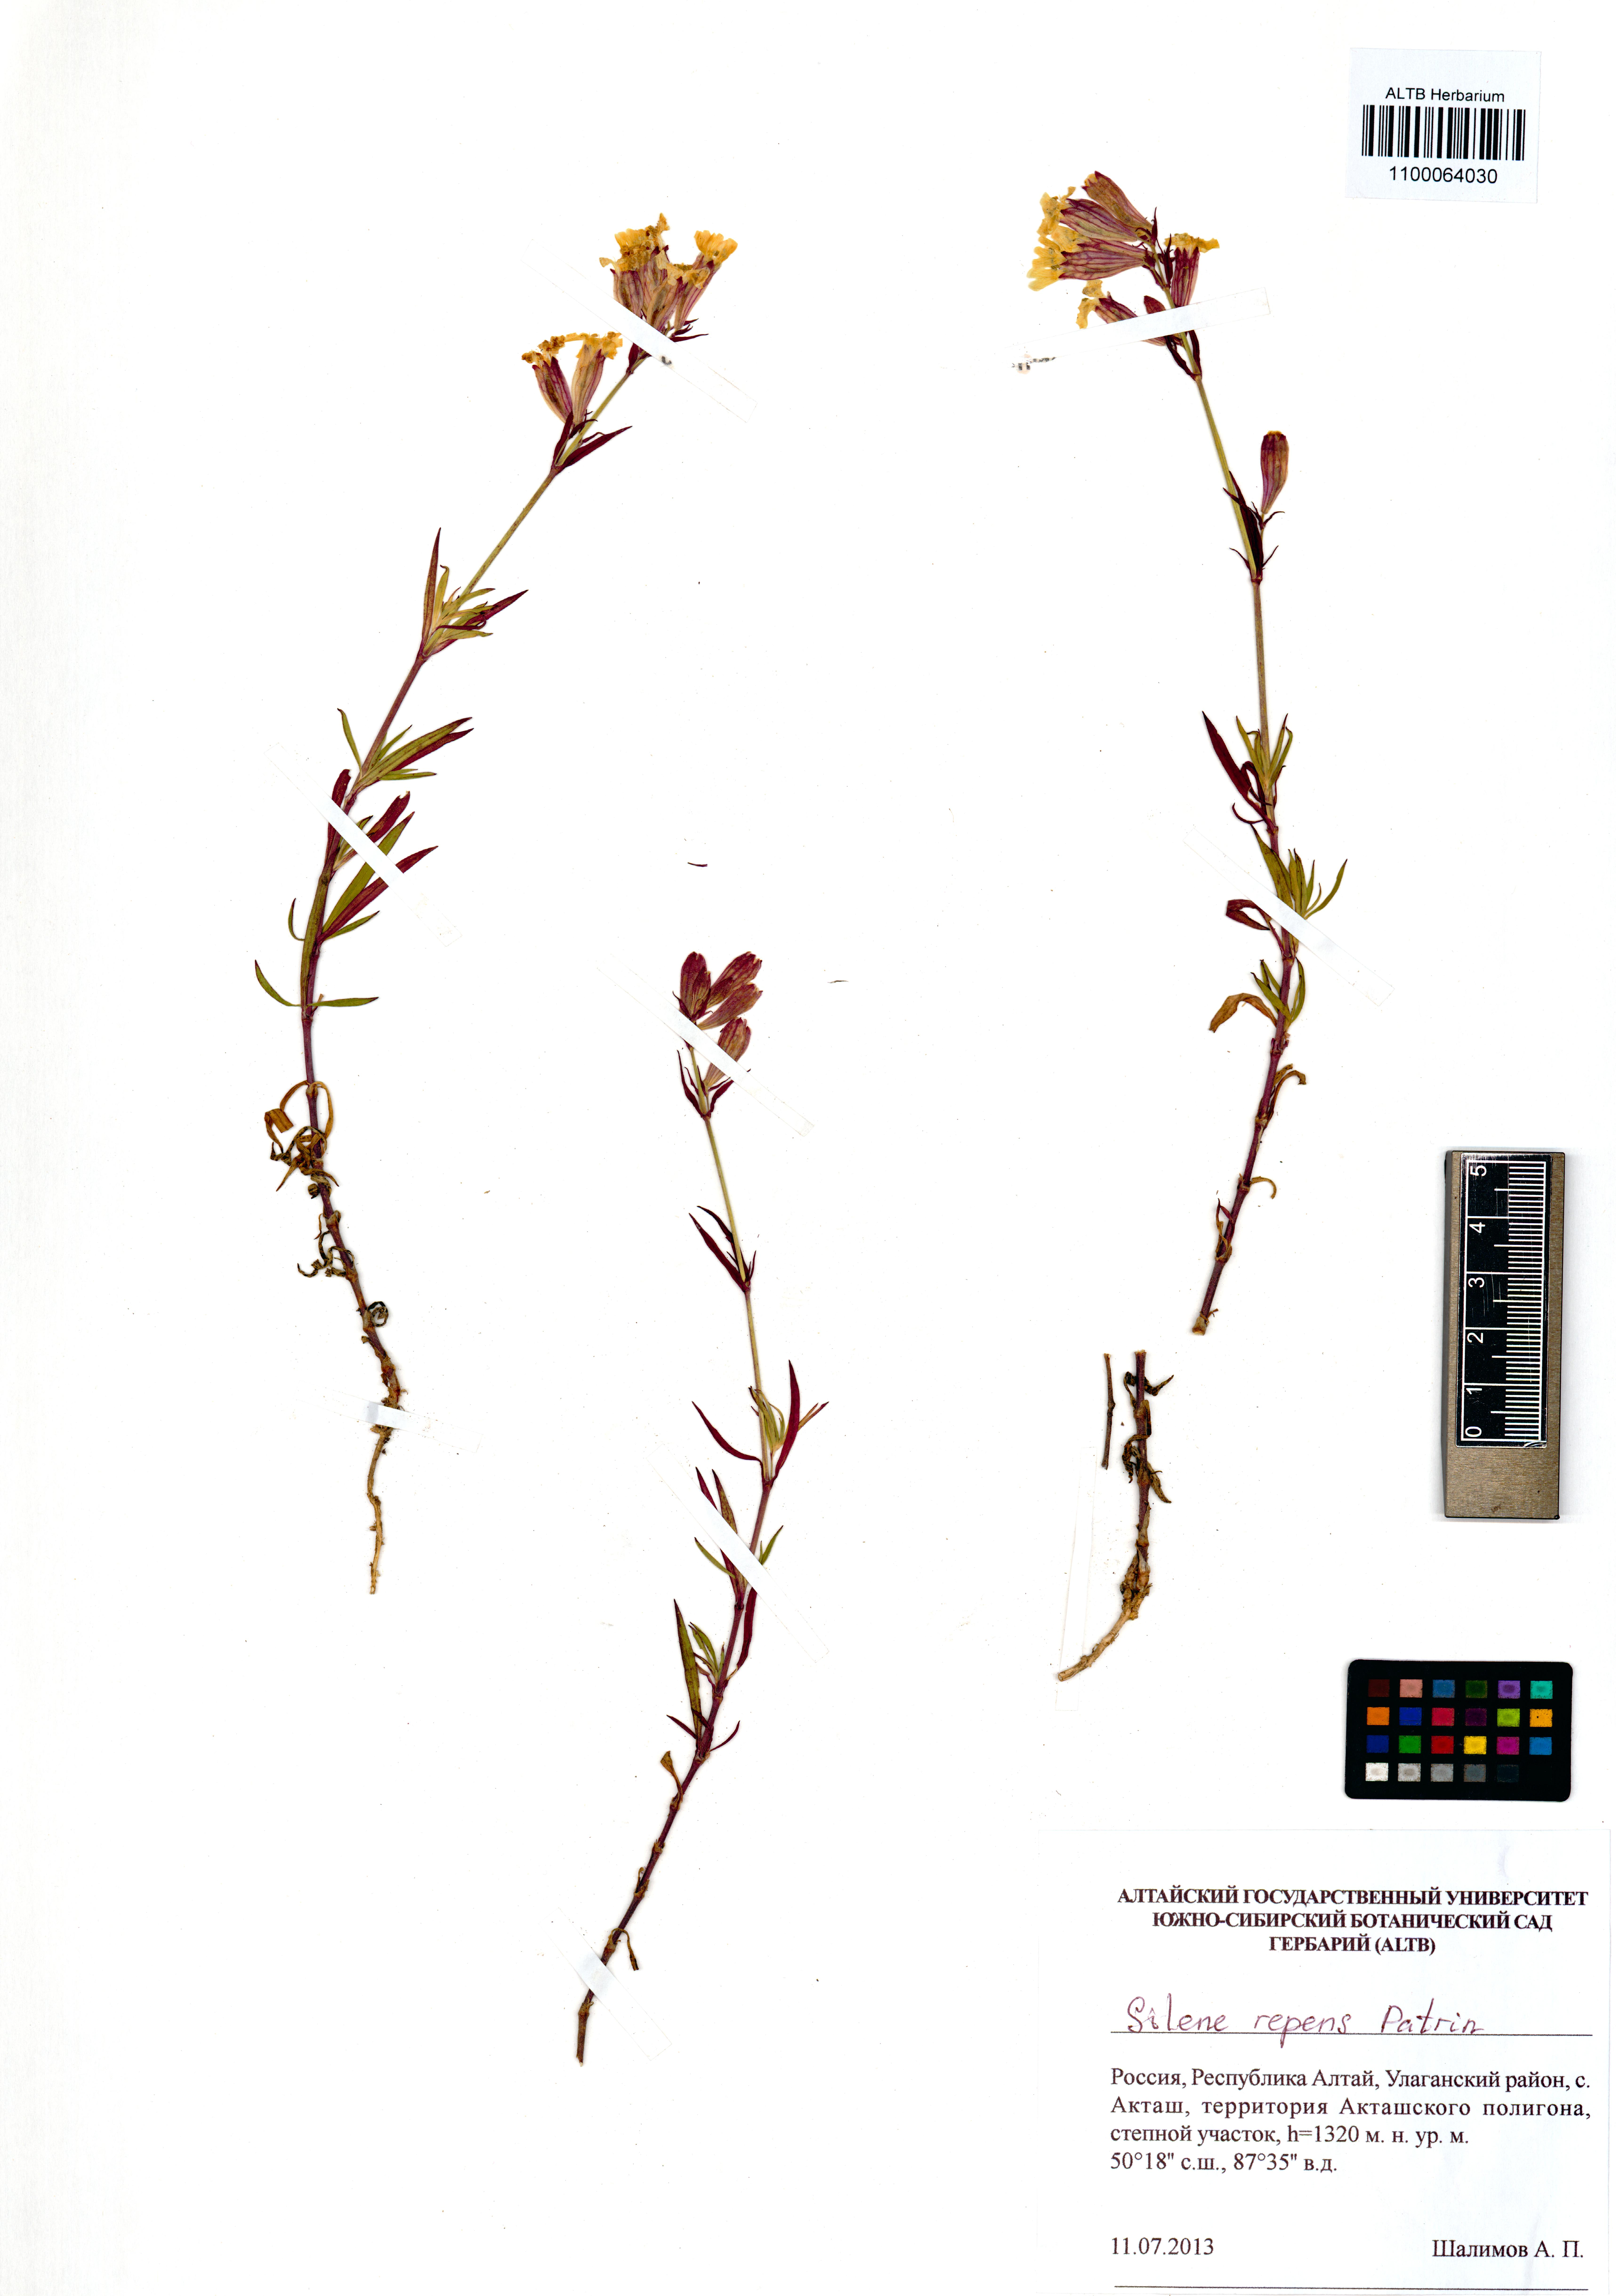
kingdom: Plantae
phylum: Tracheophyta
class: Magnoliopsida
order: Caryophyllales
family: Caryophyllaceae
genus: Silene
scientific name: Silene repens
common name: Pink campion
